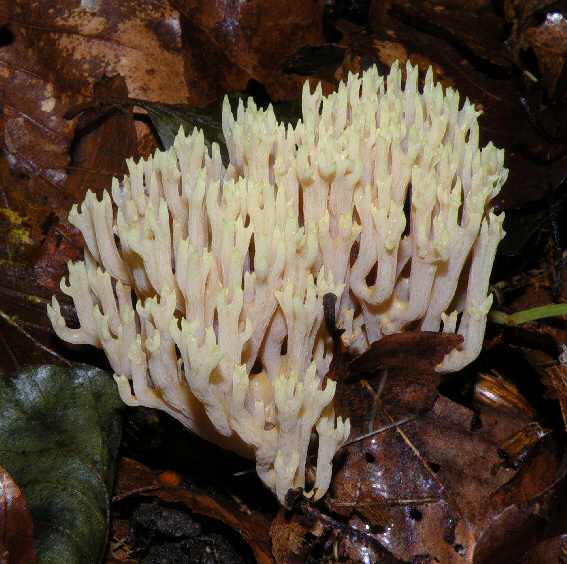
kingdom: Fungi
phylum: Basidiomycota
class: Agaricomycetes
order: Gomphales
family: Gomphaceae
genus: Ramaria
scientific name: Ramaria stricta
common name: rank koralsvamp
